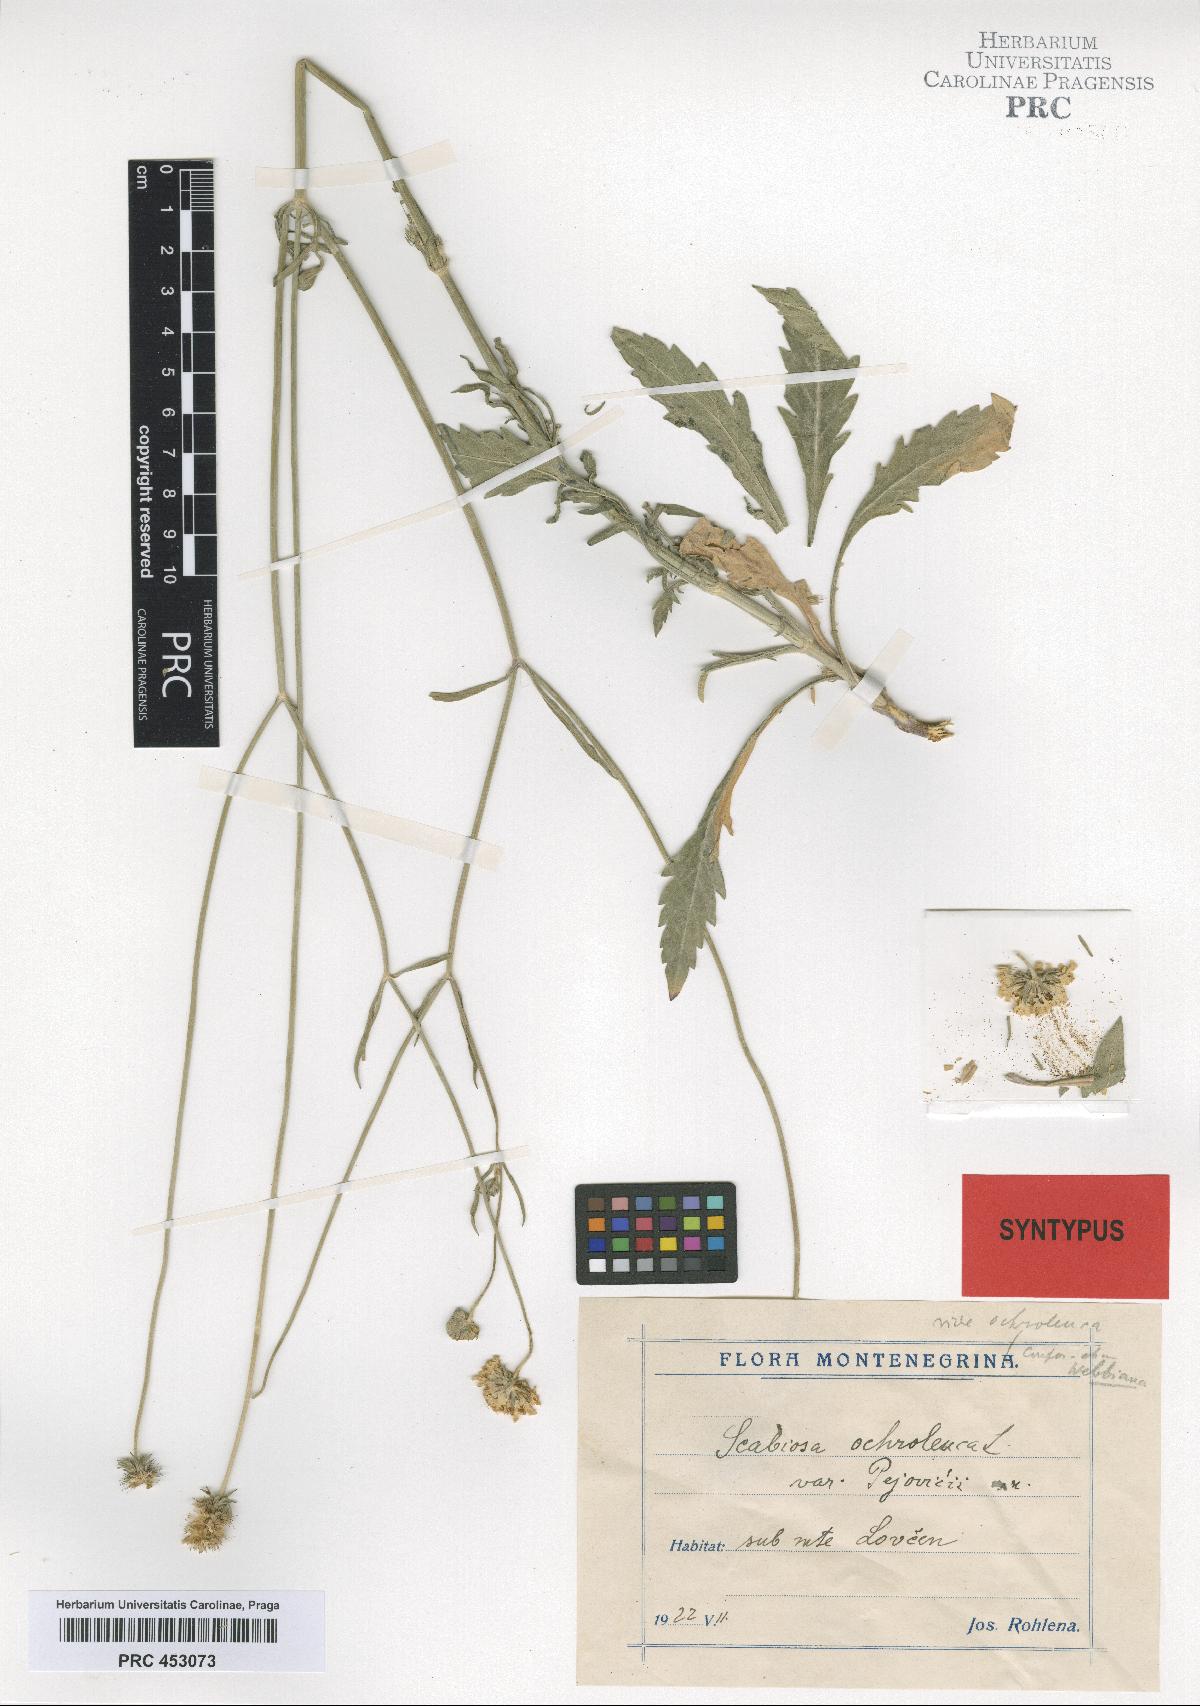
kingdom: Plantae
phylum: Tracheophyta
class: Magnoliopsida
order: Dipsacales
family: Caprifoliaceae
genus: Scabiosa
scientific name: Scabiosa ochroleuca
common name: Cream pincushions
